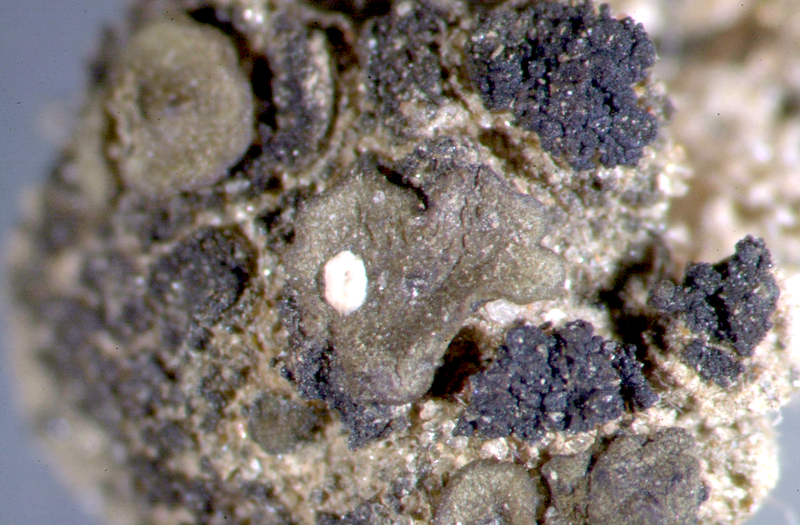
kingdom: Fungi
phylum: Ascomycota
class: Lichinomycetes
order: Lichinales
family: Lichinaceae
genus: Heppia
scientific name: Heppia despreauxii
